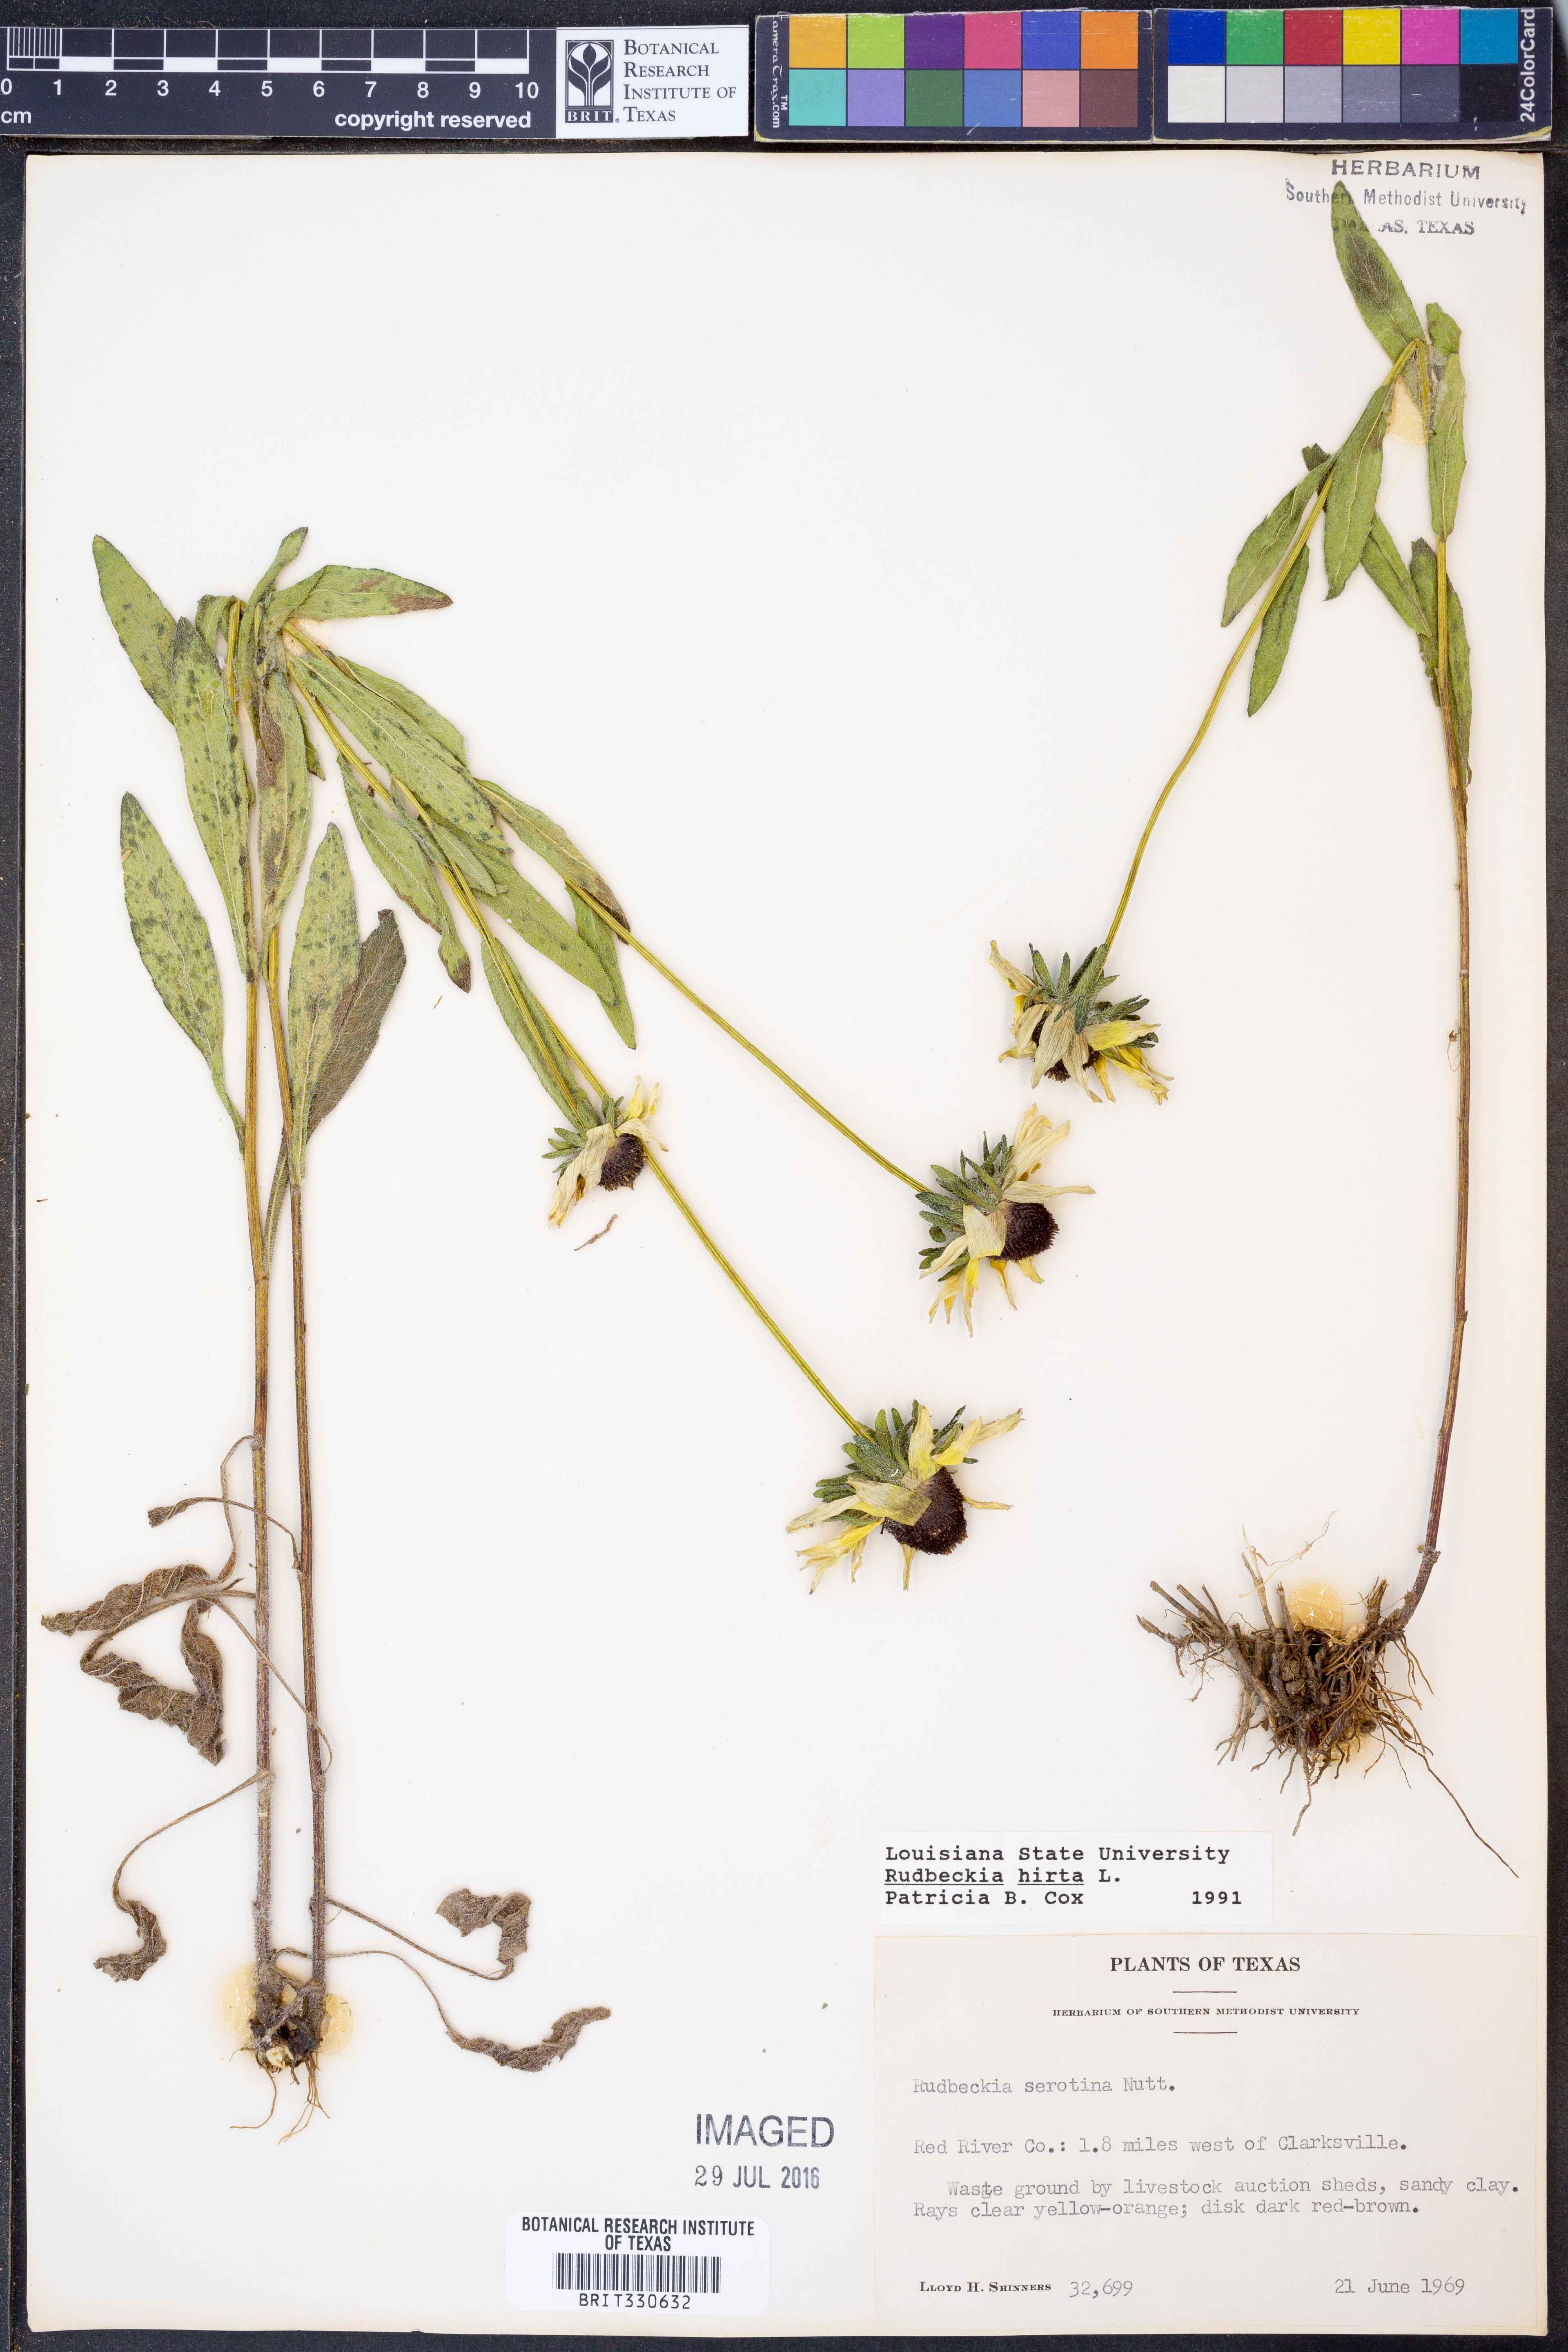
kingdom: Plantae
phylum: Tracheophyta
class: Magnoliopsida
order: Asterales
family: Asteraceae
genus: Rudbeckia
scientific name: Rudbeckia hirta
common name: Black-eyed-susan
